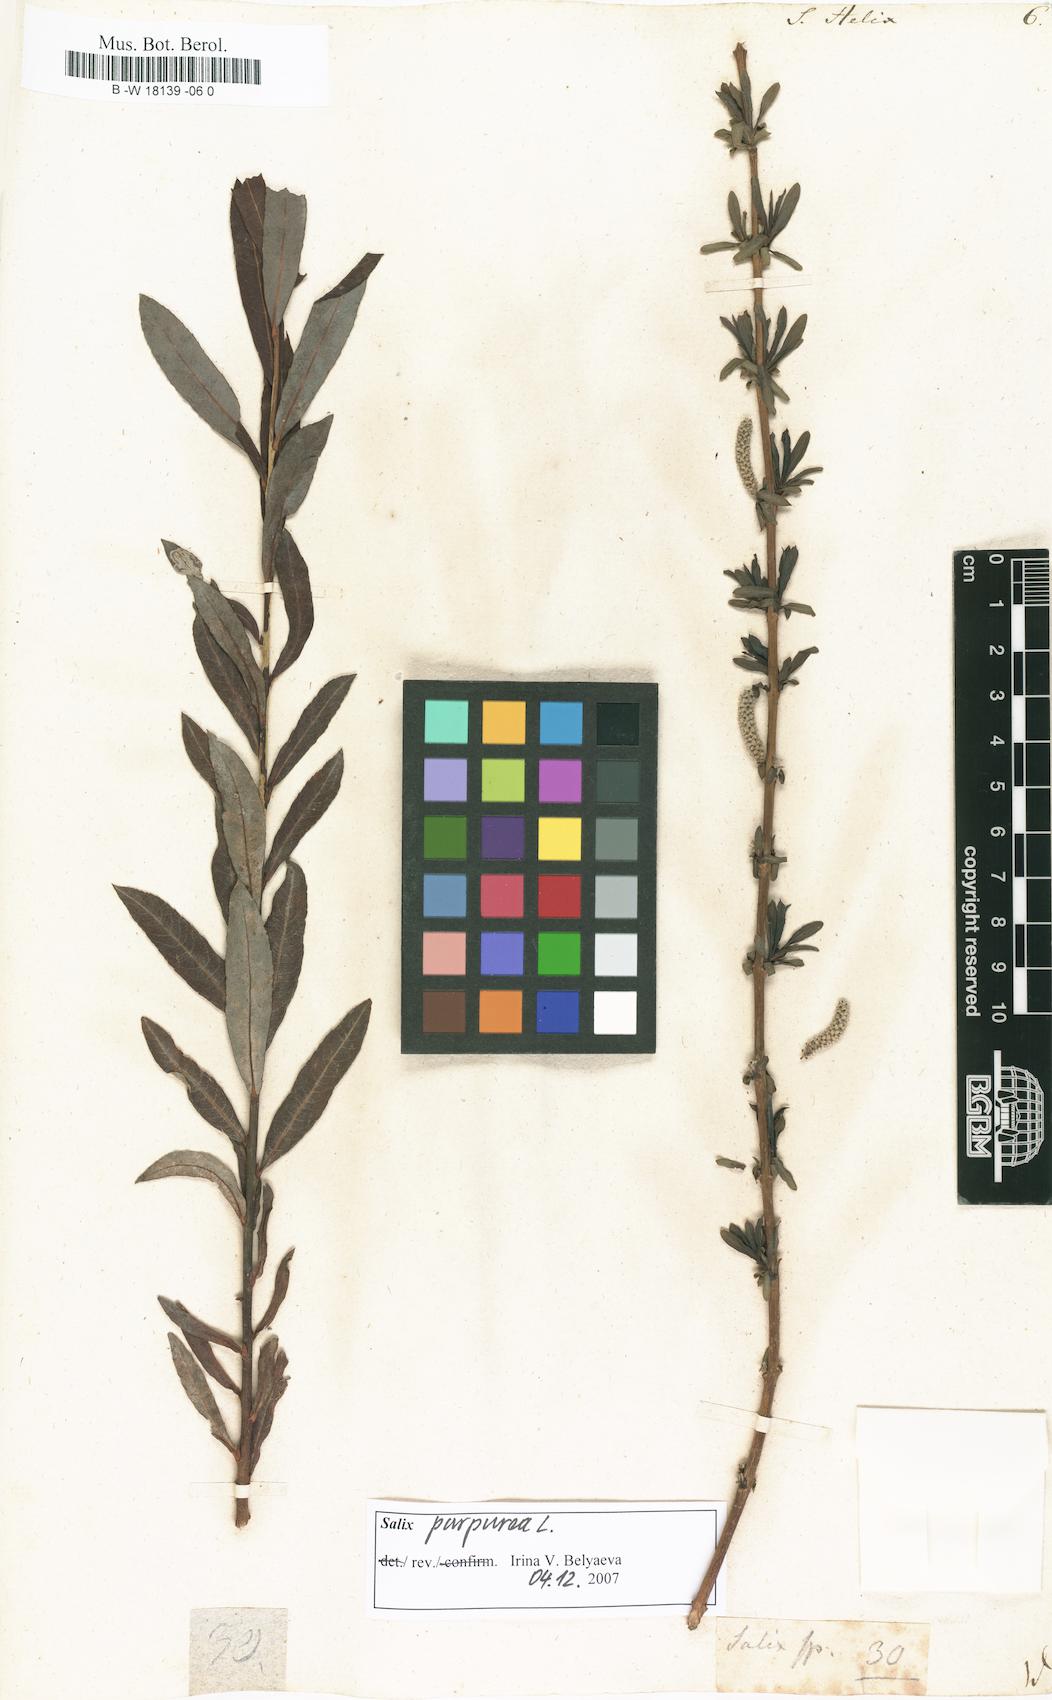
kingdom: Plantae
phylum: Tracheophyta
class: Magnoliopsida
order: Malpighiales
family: Salicaceae
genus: Salix
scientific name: Salix purpurea
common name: Purple willow
